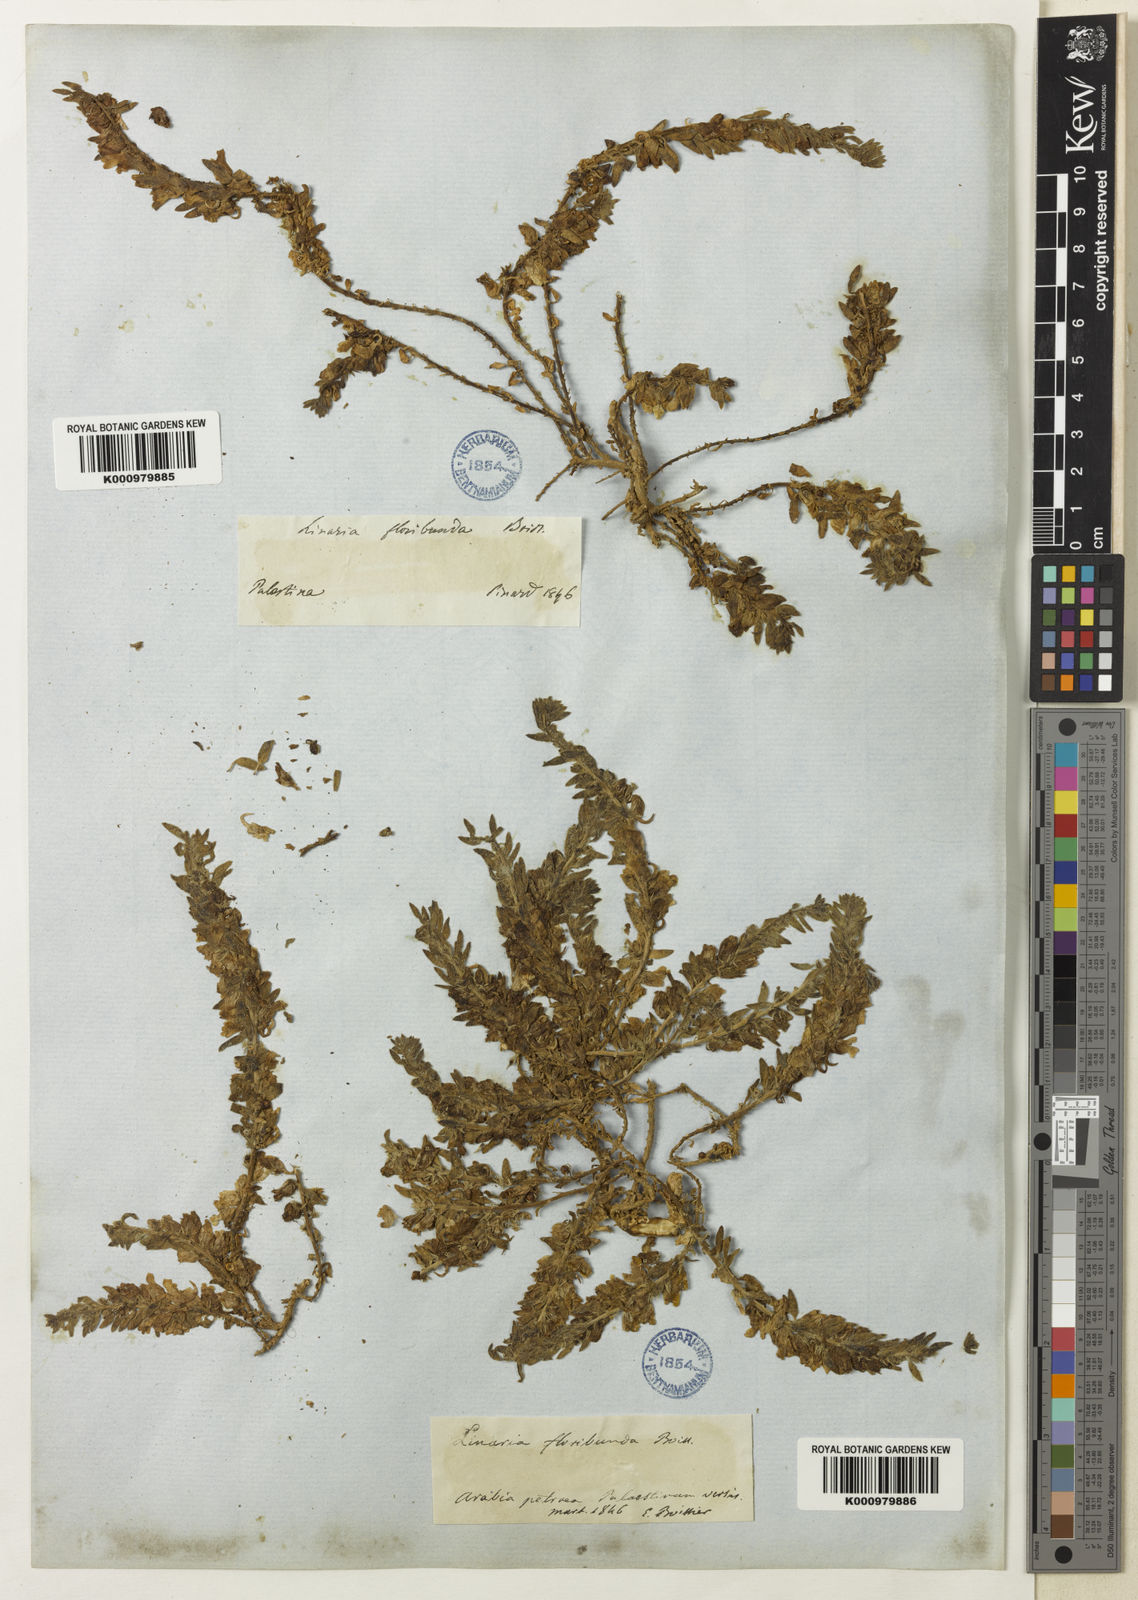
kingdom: Plantae
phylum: Tracheophyta
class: Magnoliopsida
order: Lamiales
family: Plantaginaceae
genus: Kickxia
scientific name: Kickxia
